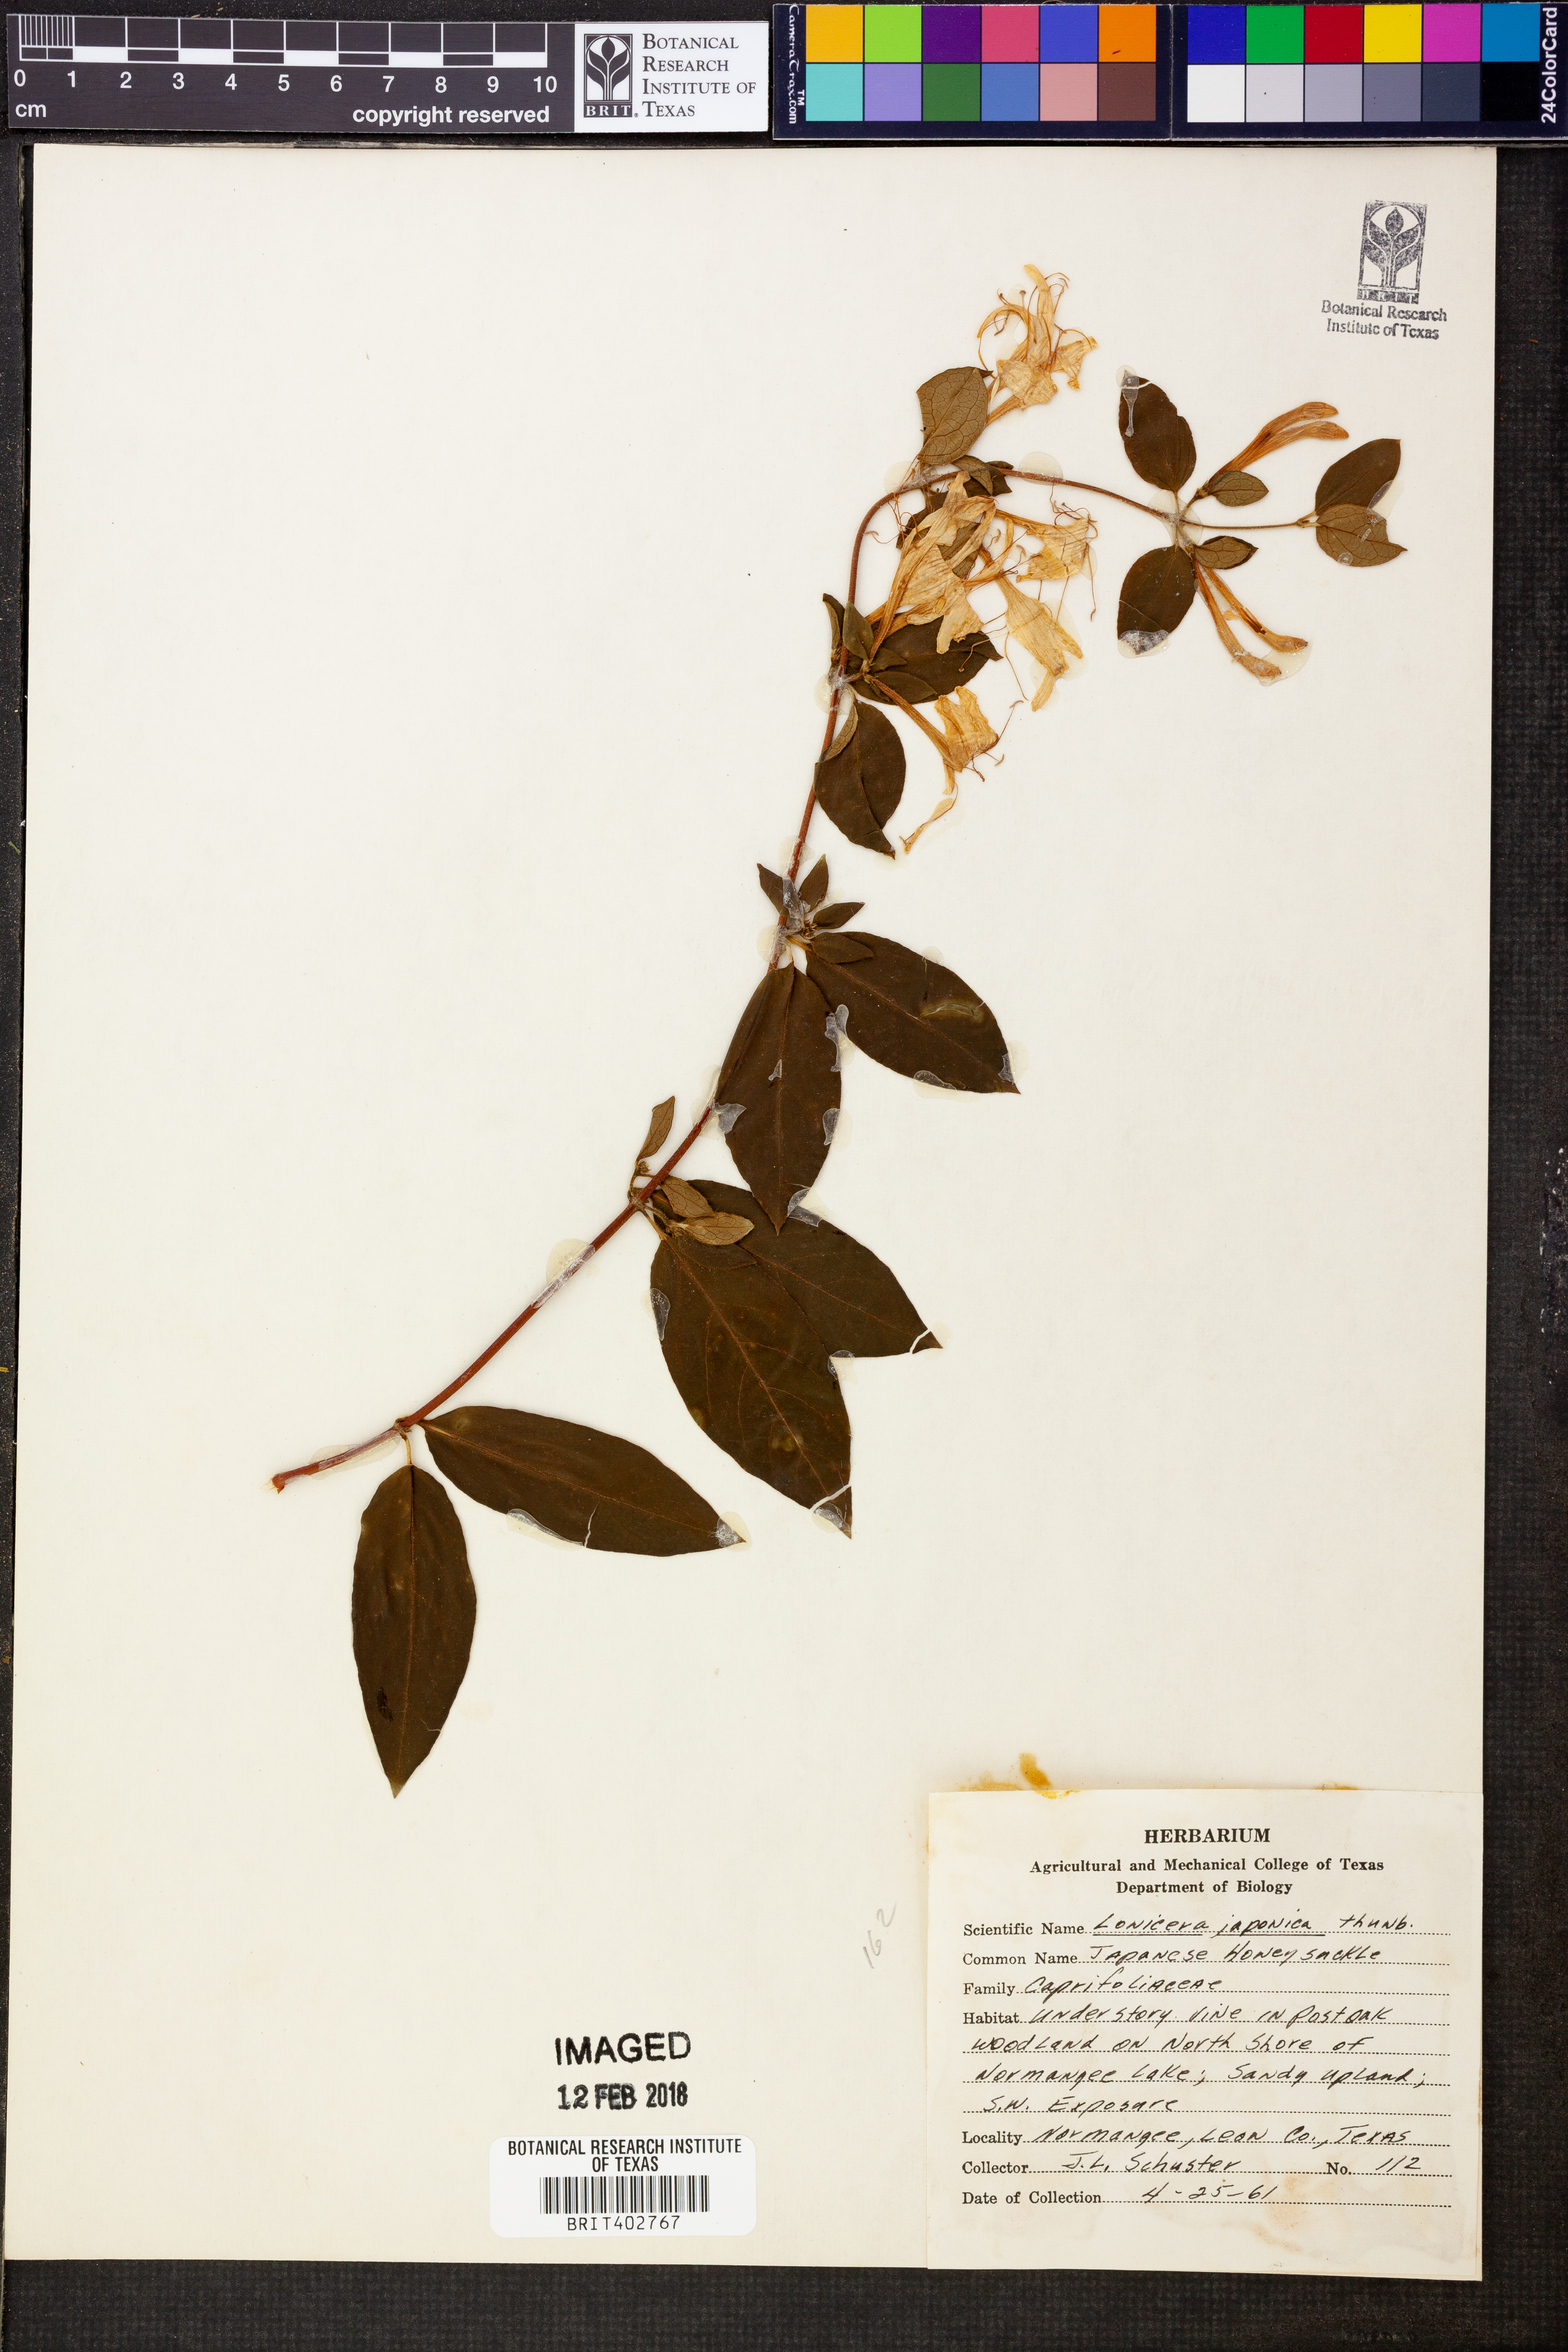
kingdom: Plantae
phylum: Tracheophyta
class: Magnoliopsida
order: Dipsacales
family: Caprifoliaceae
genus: Lonicera
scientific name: Lonicera japonica
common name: Japanese honeysuckle
